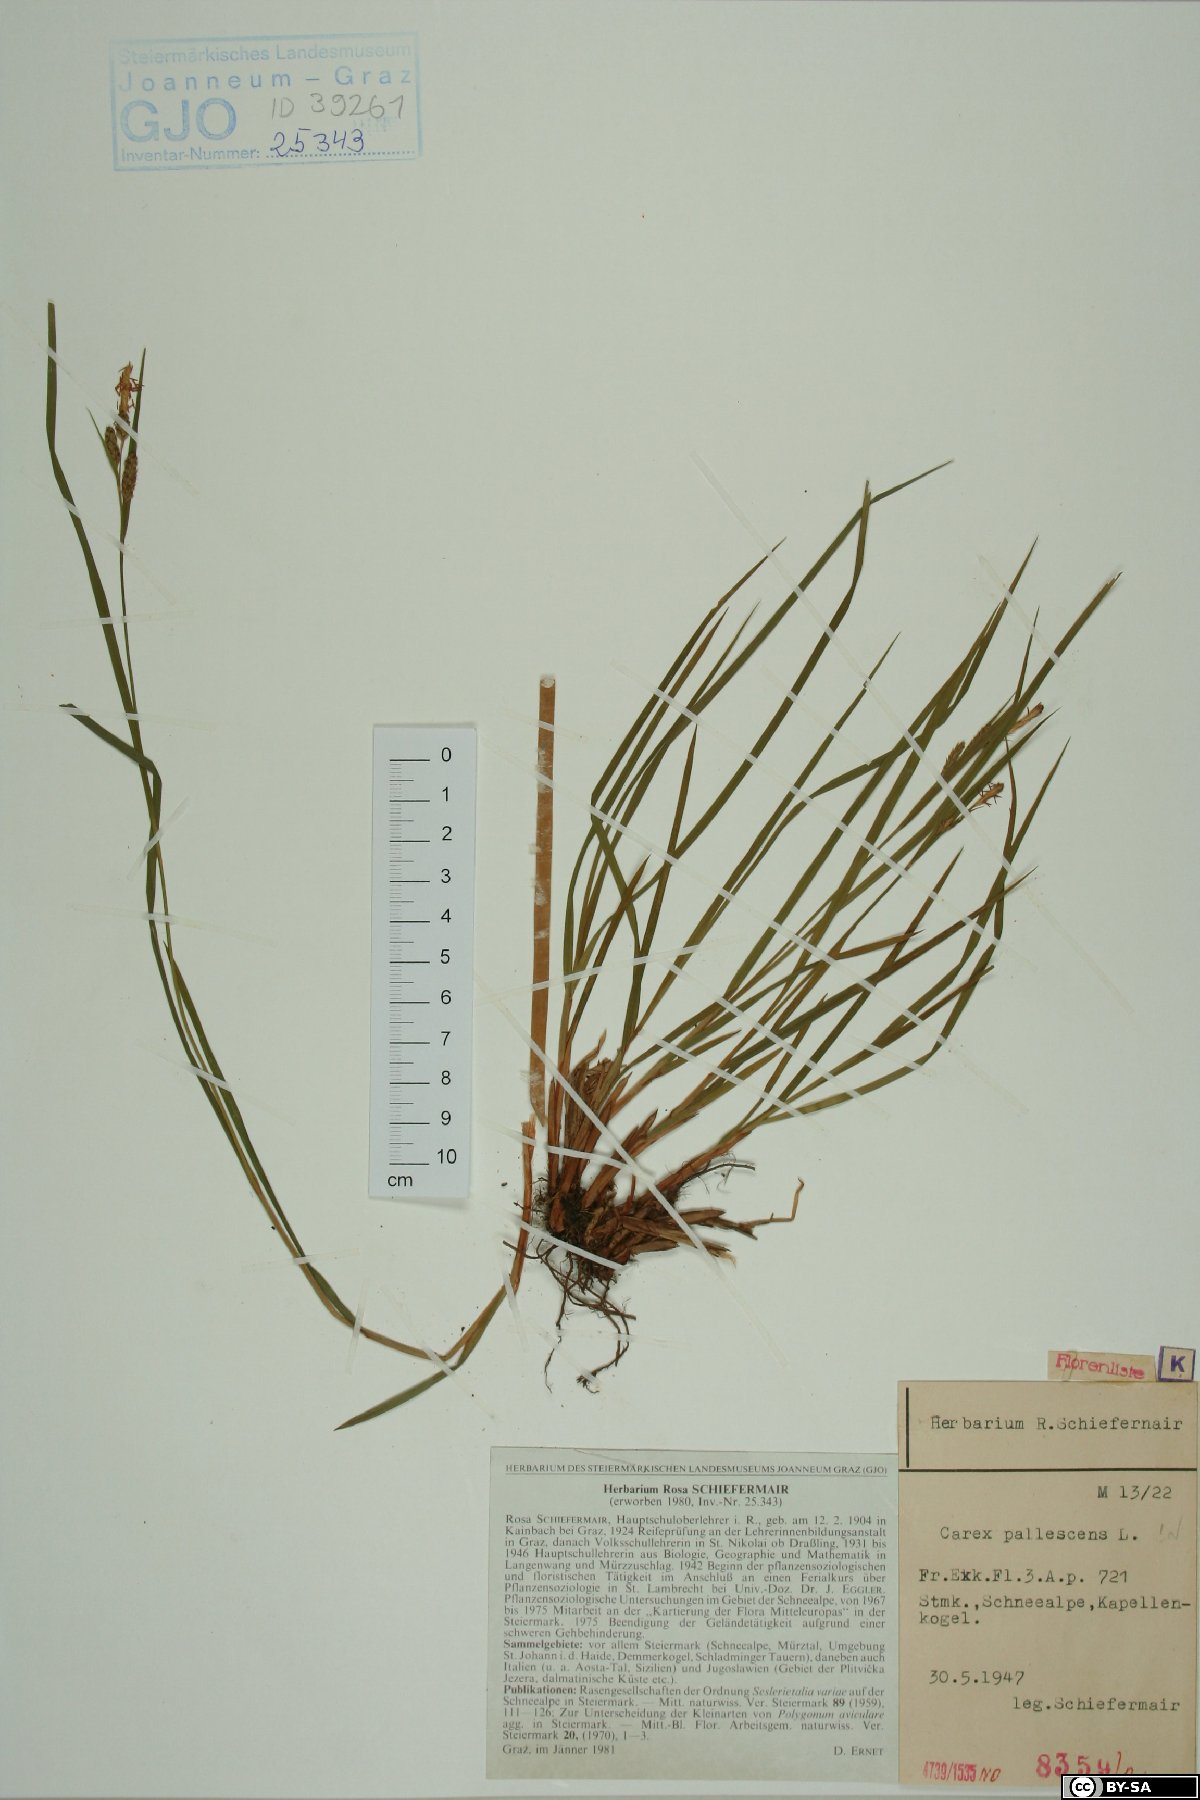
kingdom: Plantae
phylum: Tracheophyta
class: Liliopsida
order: Poales
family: Cyperaceae
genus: Carex
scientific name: Carex pallescens
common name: Pale sedge
